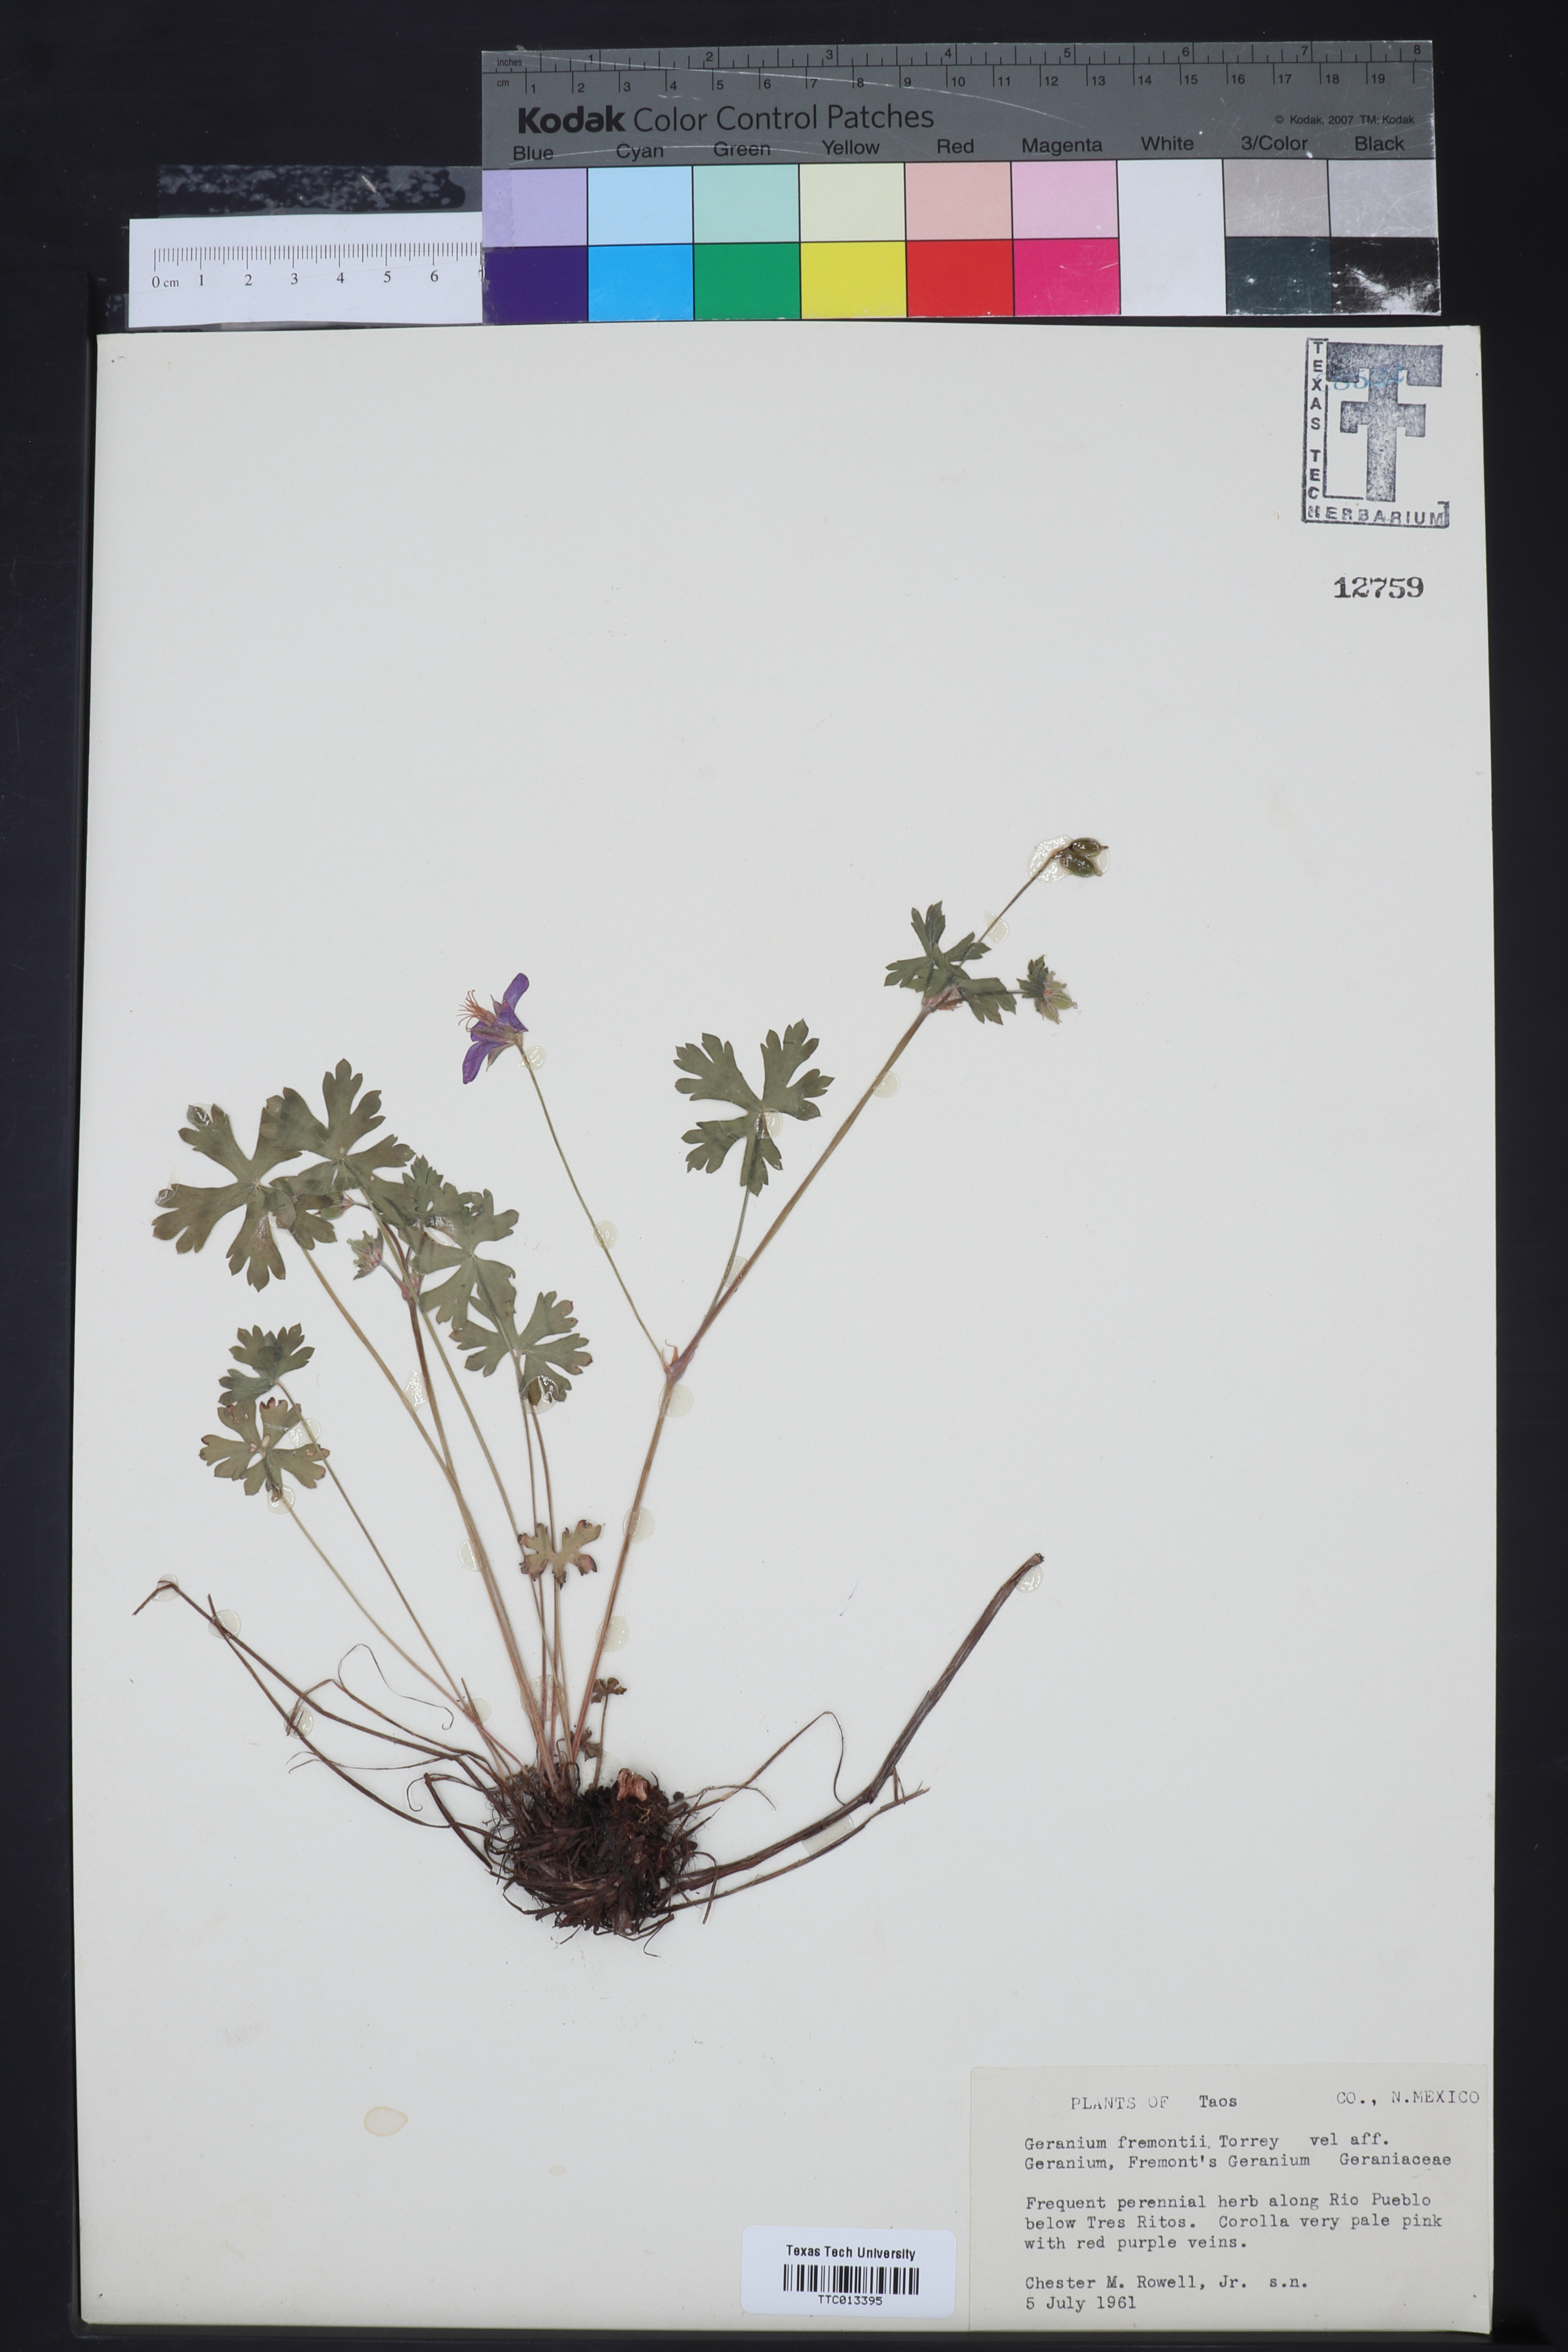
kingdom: Plantae
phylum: Tracheophyta
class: Magnoliopsida
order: Geraniales
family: Geraniaceae
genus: Geranium
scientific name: Geranium caespitosum
